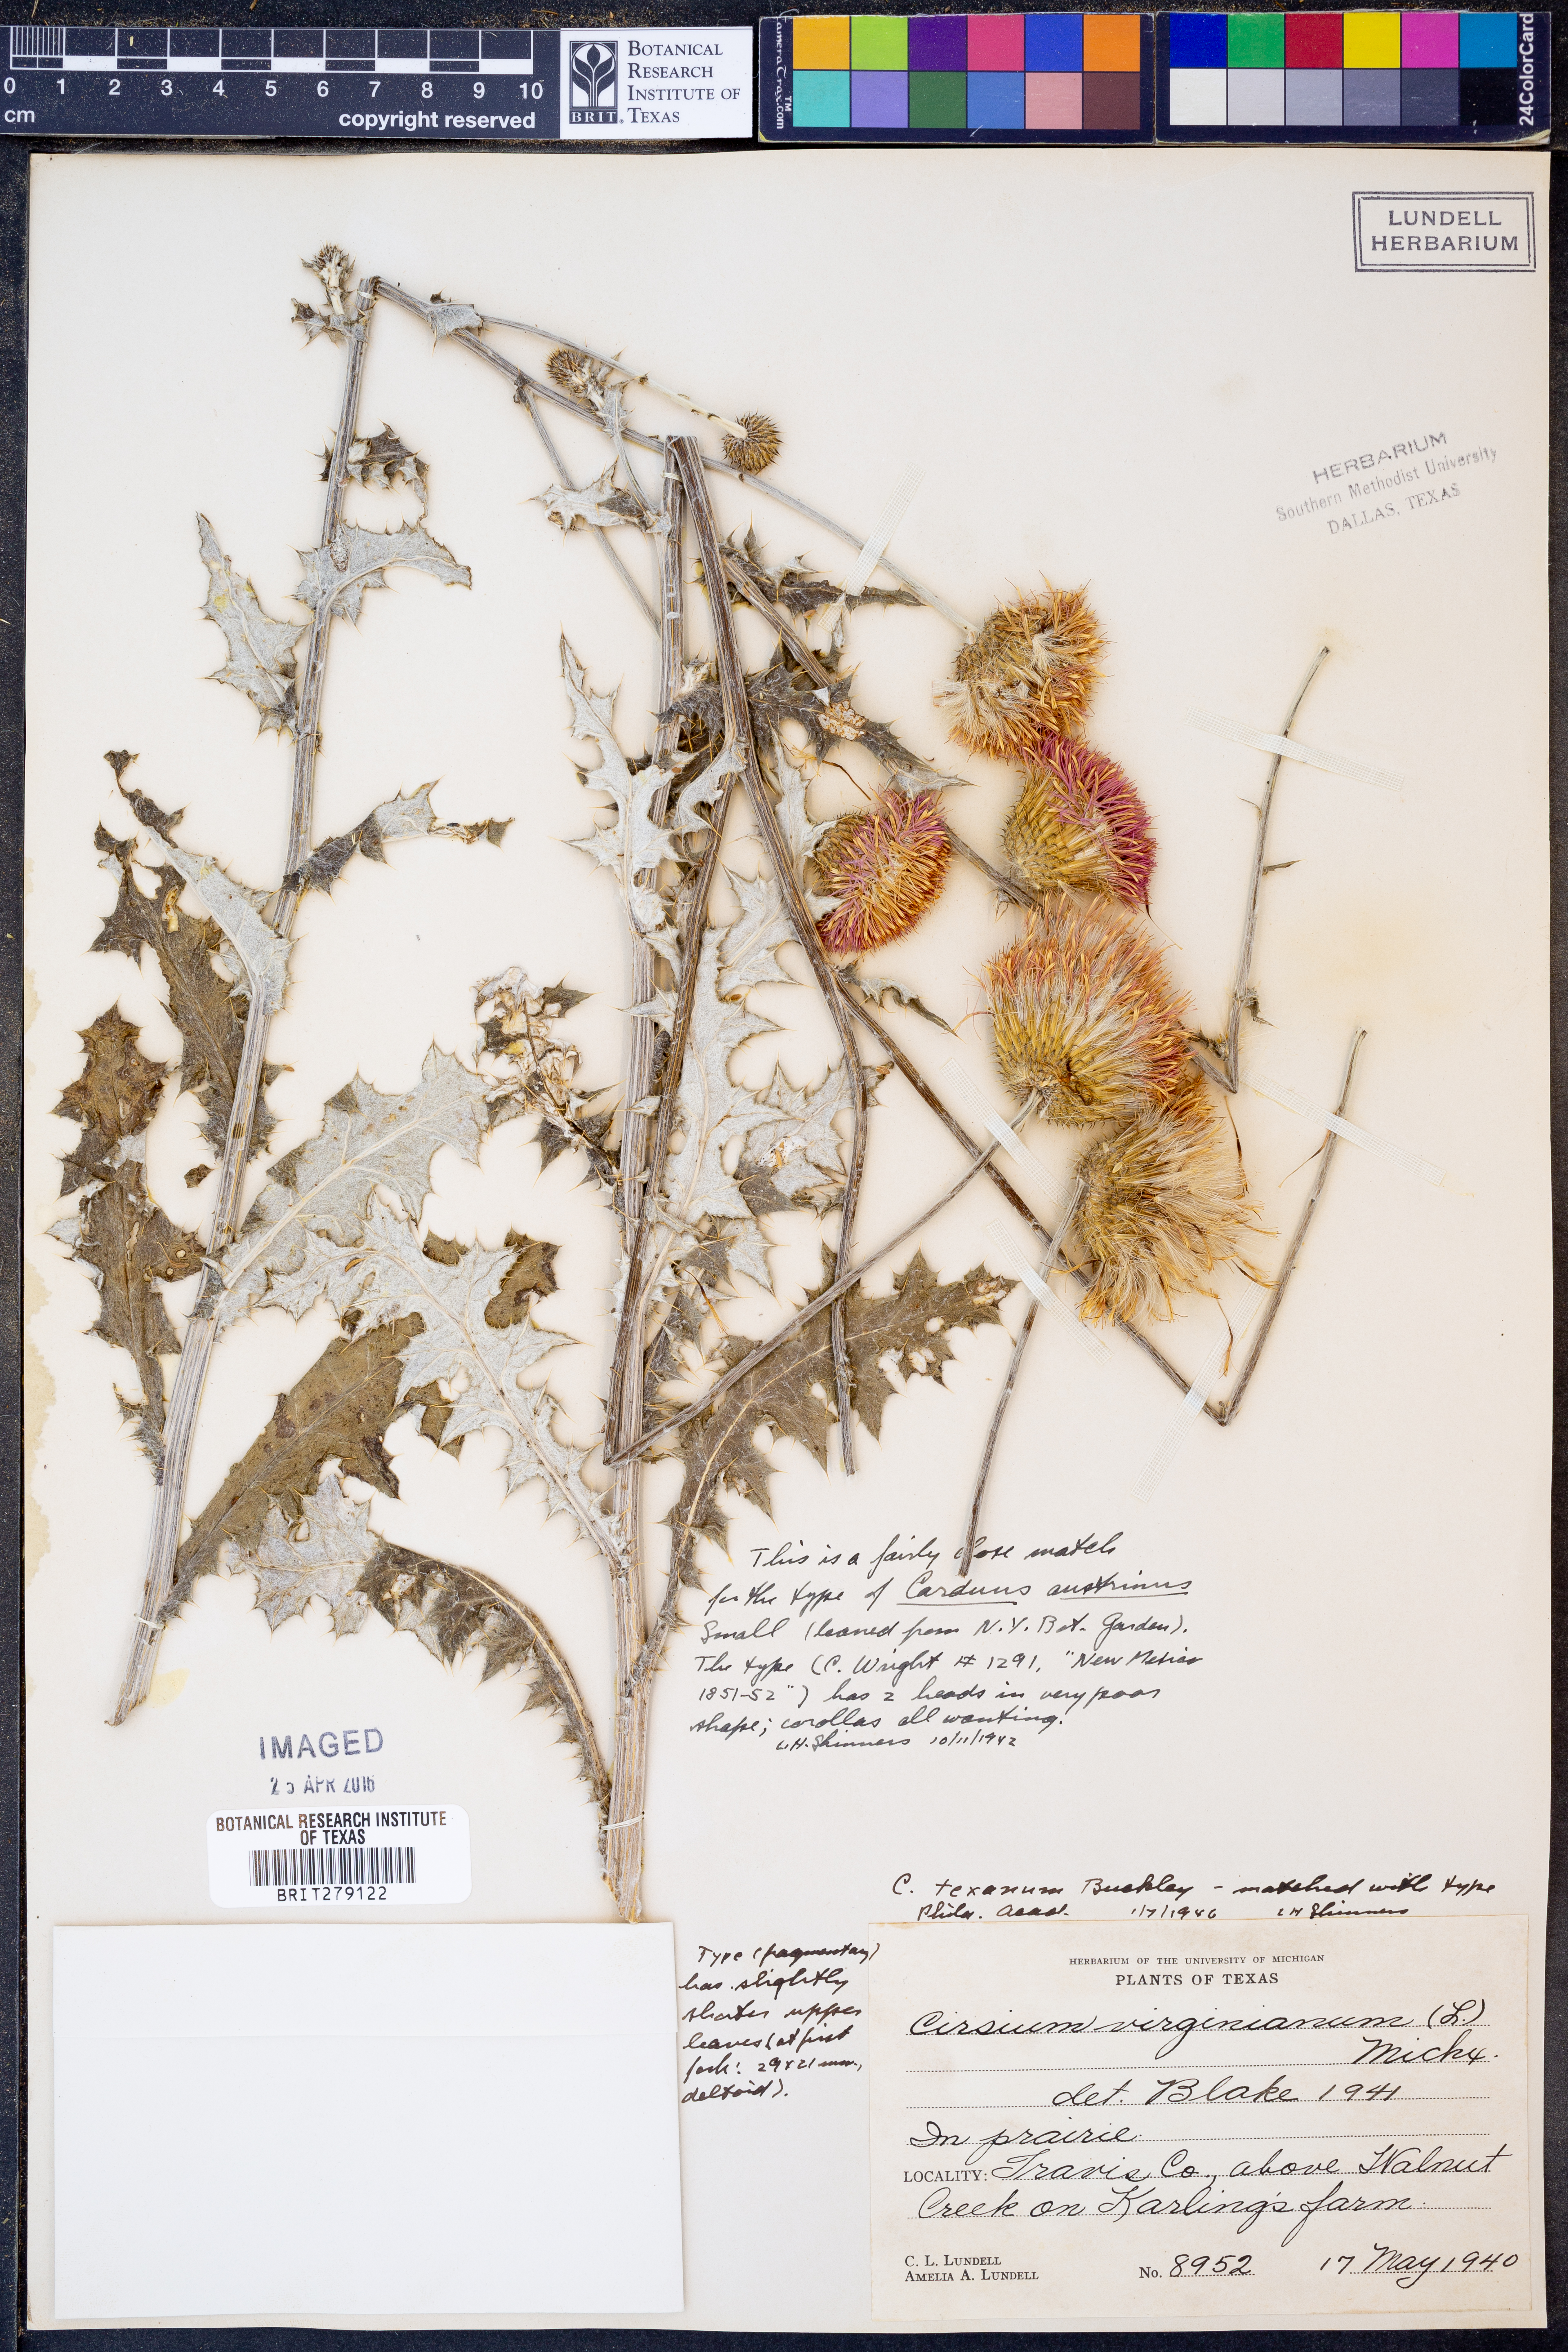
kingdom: Plantae
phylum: Tracheophyta
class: Magnoliopsida
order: Asterales
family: Asteraceae
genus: Cirsium
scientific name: Cirsium texanum
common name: Texas purple thistle
